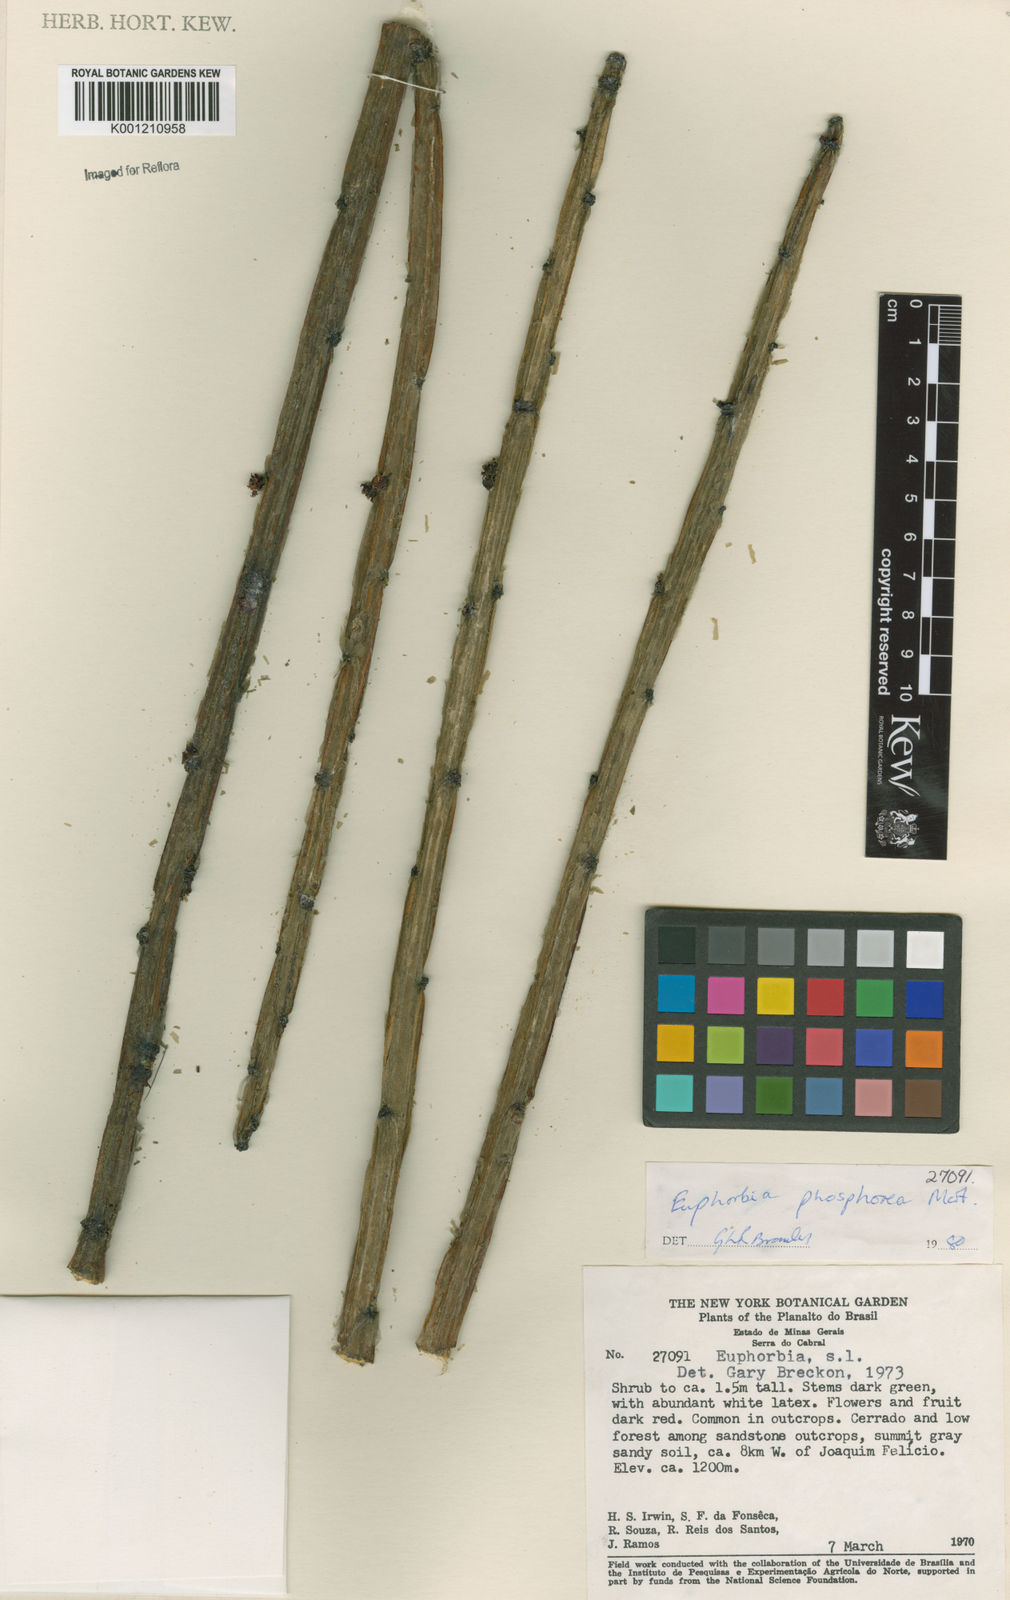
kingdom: Plantae
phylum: Tracheophyta
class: Magnoliopsida
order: Malpighiales
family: Euphorbiaceae
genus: Euphorbia
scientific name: Euphorbia phosphorea
